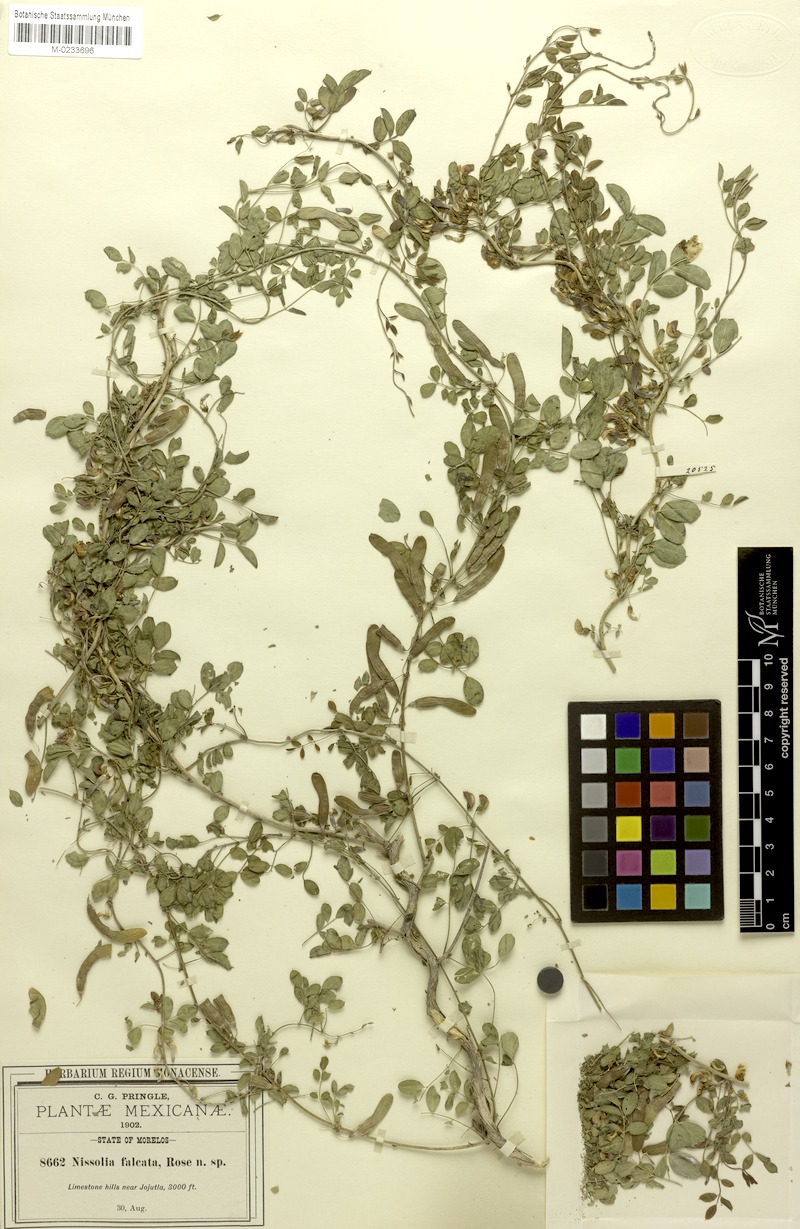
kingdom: Plantae
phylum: Tracheophyta
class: Magnoliopsida
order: Fabales
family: Fabaceae
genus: Nissolia
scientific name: Nissolia pringlei
